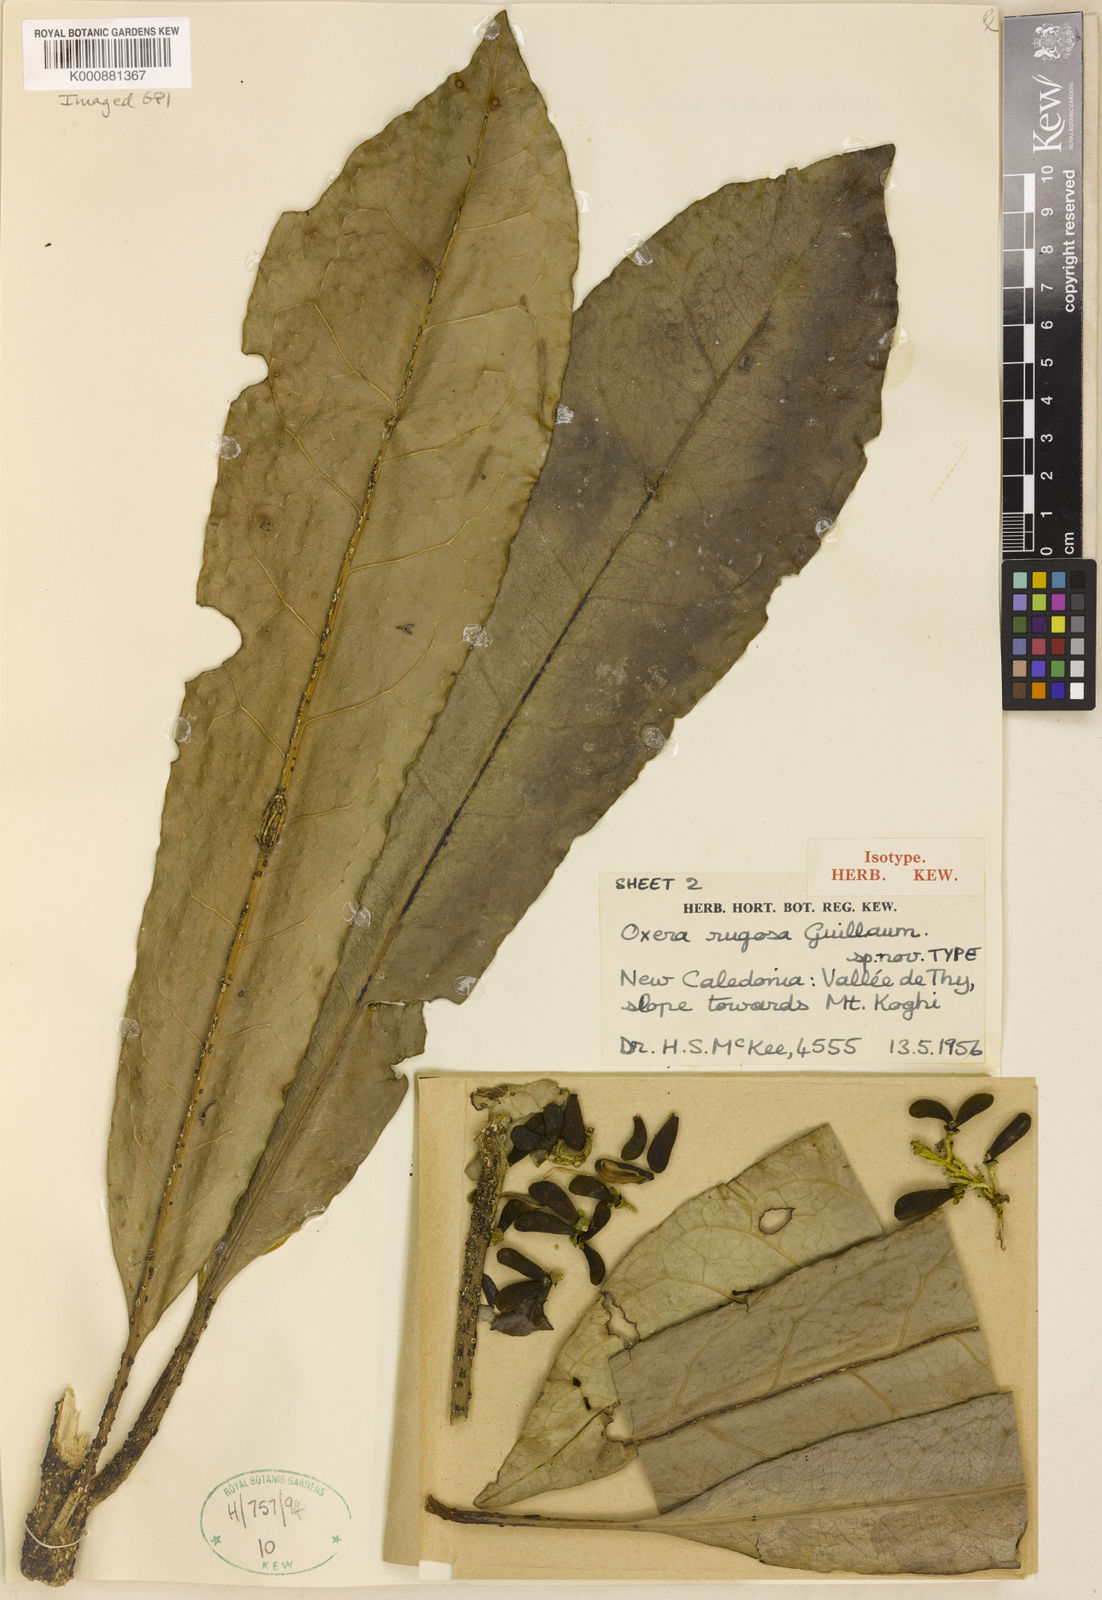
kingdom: Plantae
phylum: Tracheophyta
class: Magnoliopsida
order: Lamiales
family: Lamiaceae
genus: Oxera
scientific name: Oxera rugosa
